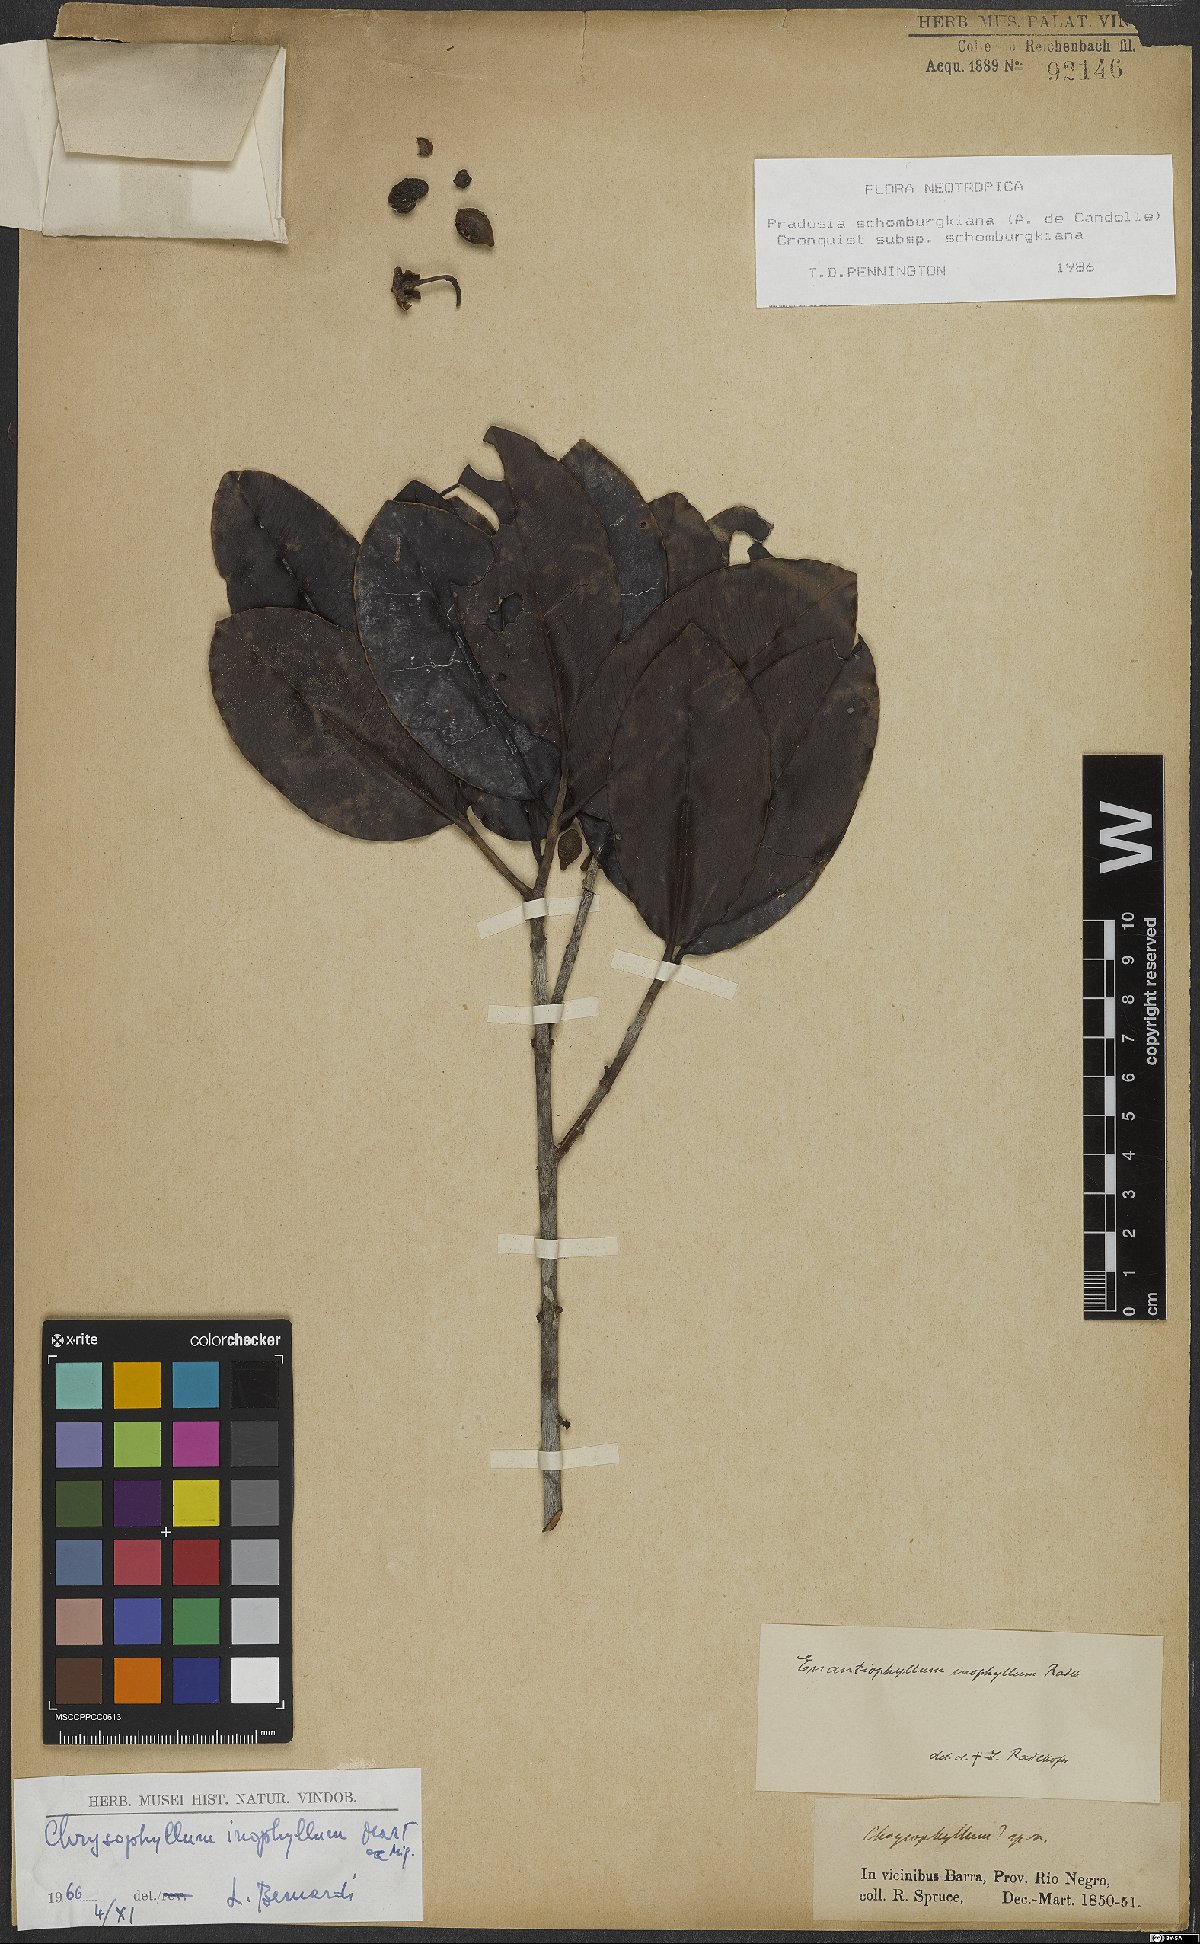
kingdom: Plantae
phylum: Tracheophyta
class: Magnoliopsida
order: Ericales
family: Sapotaceae
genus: Pradosia
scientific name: Pradosia schomburgkiana
